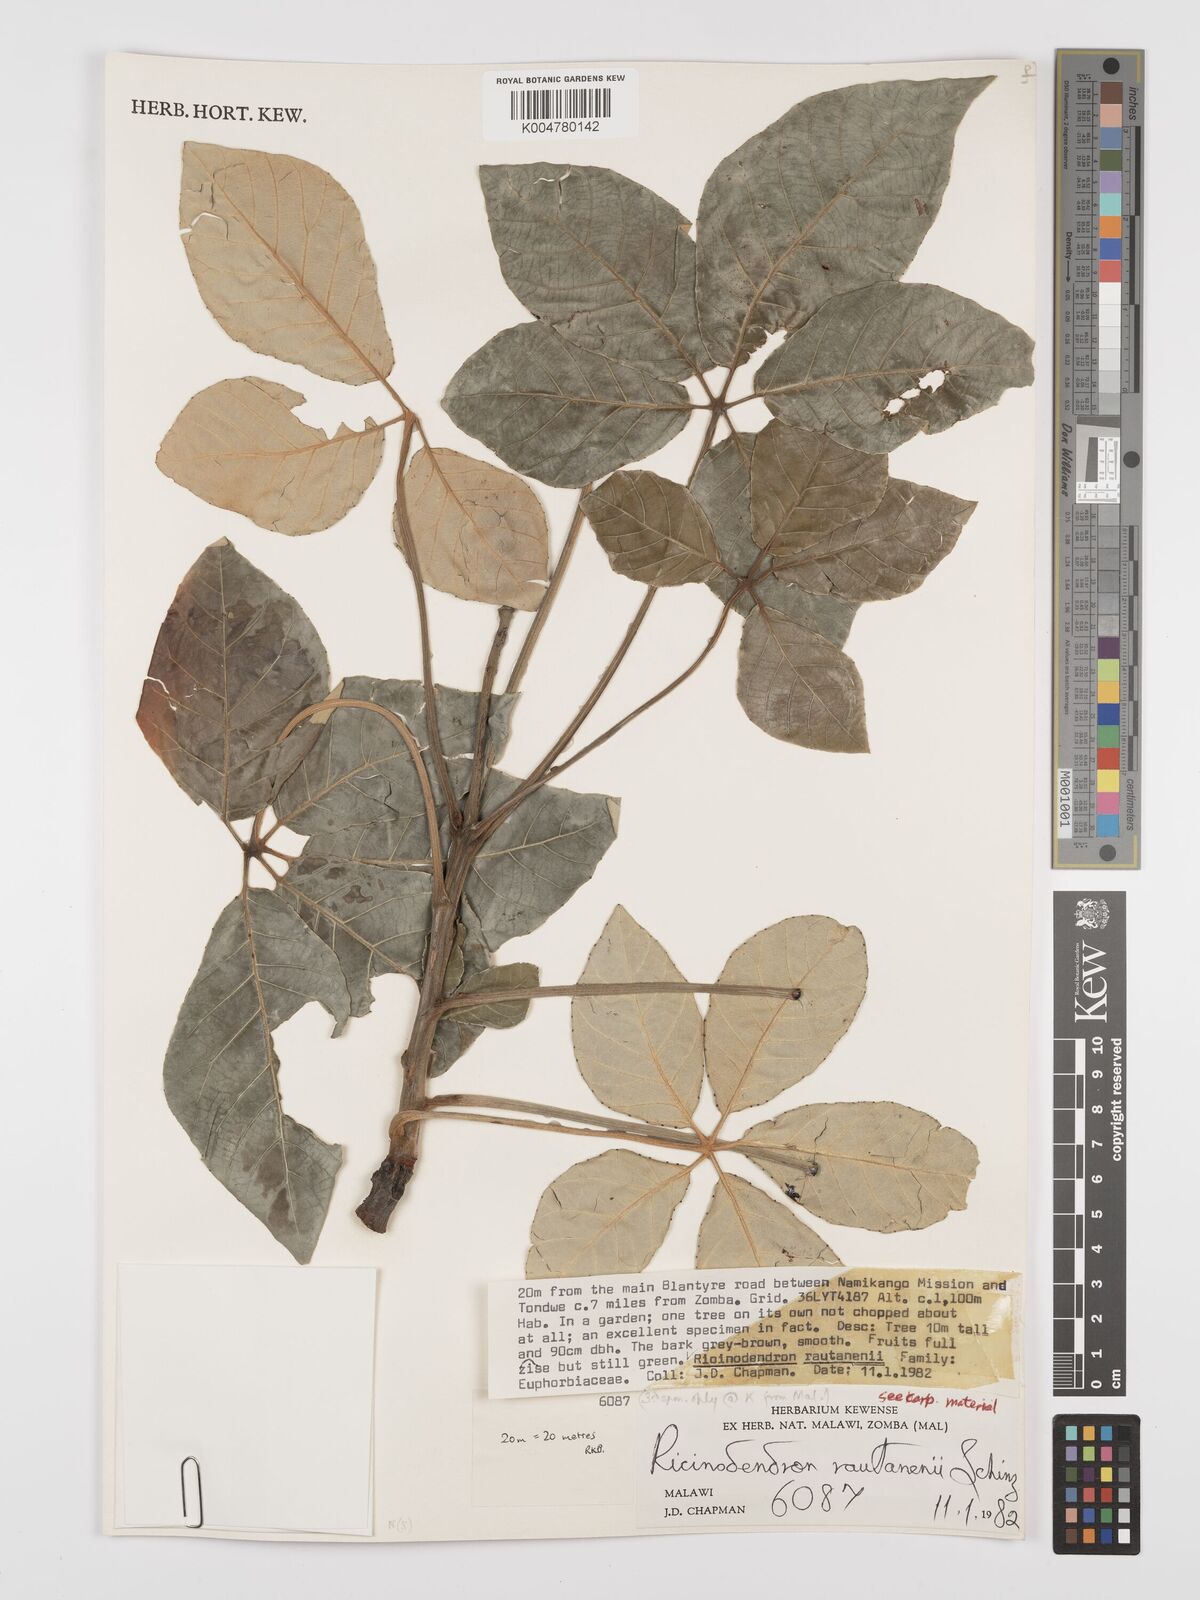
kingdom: Plantae
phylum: Tracheophyta
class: Magnoliopsida
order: Malpighiales
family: Euphorbiaceae
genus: Schinziophyton
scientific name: Schinziophyton rautanenii
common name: Manketti
